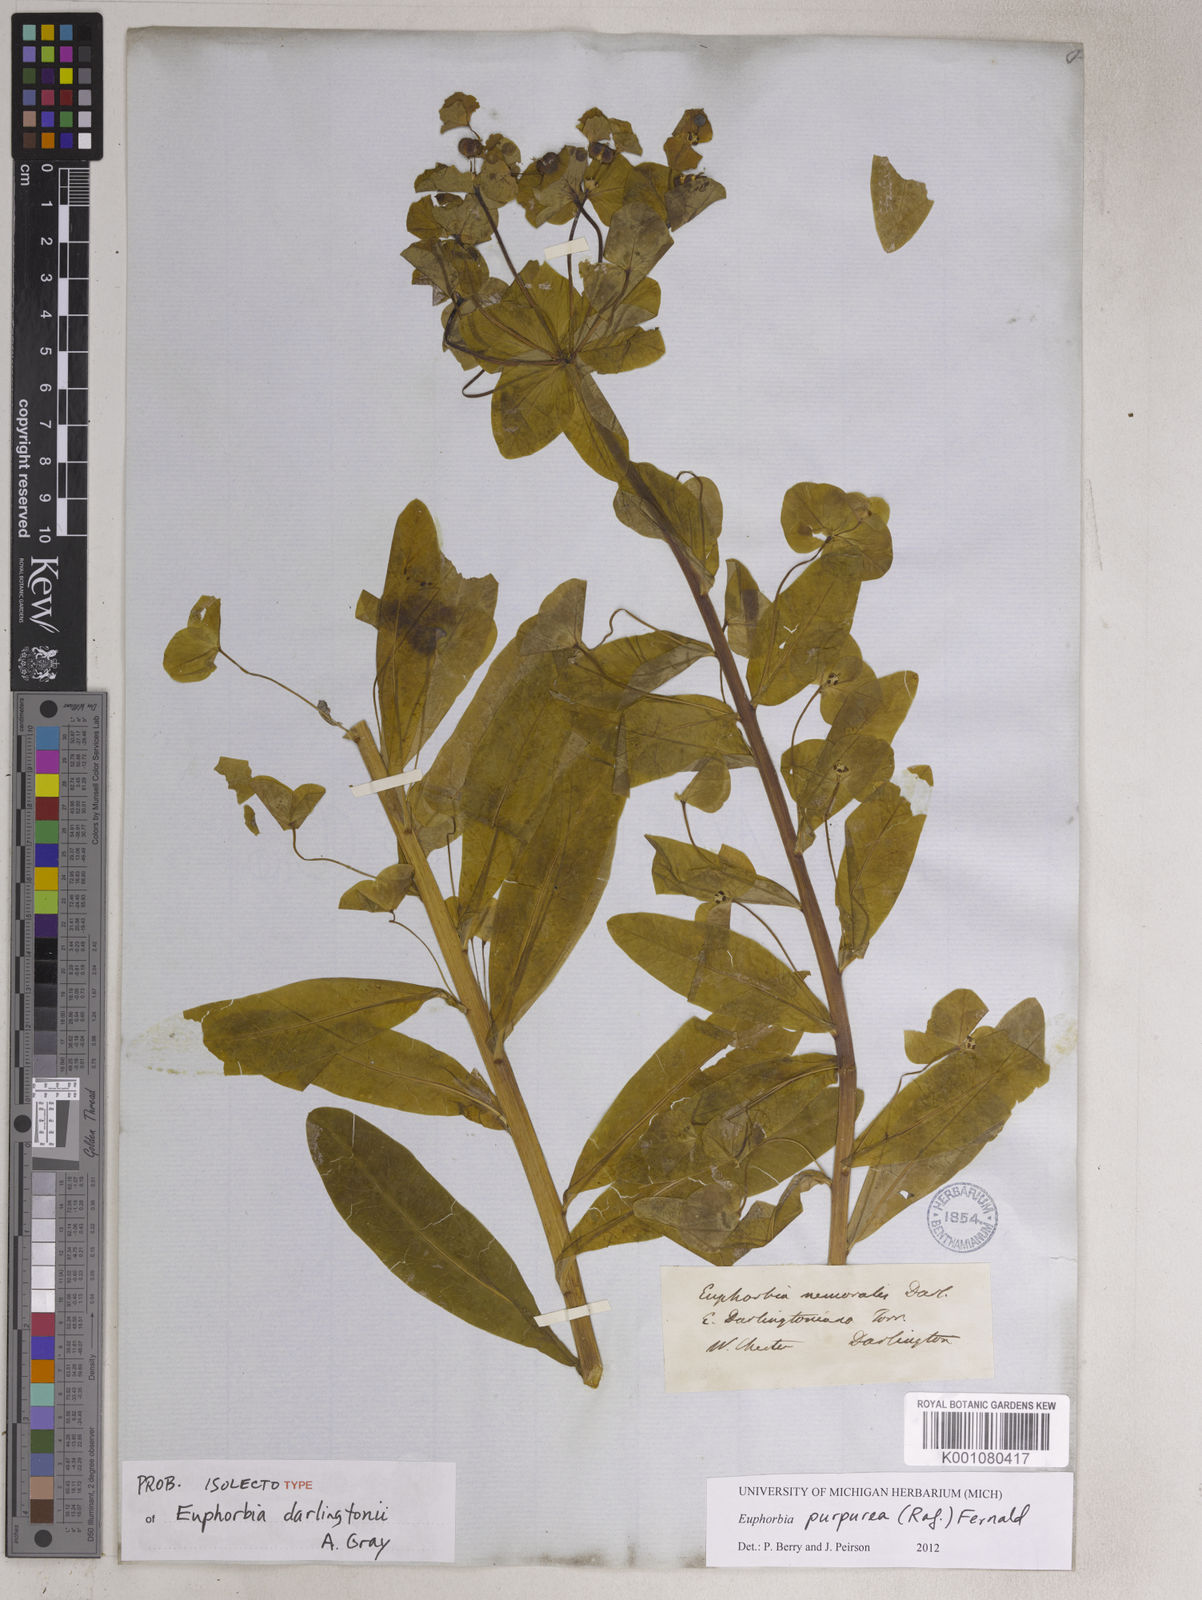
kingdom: Plantae
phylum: Tracheophyta
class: Magnoliopsida
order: Malpighiales
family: Euphorbiaceae
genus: Euphorbia
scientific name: Euphorbia purpurea
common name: Darlington's spurge
